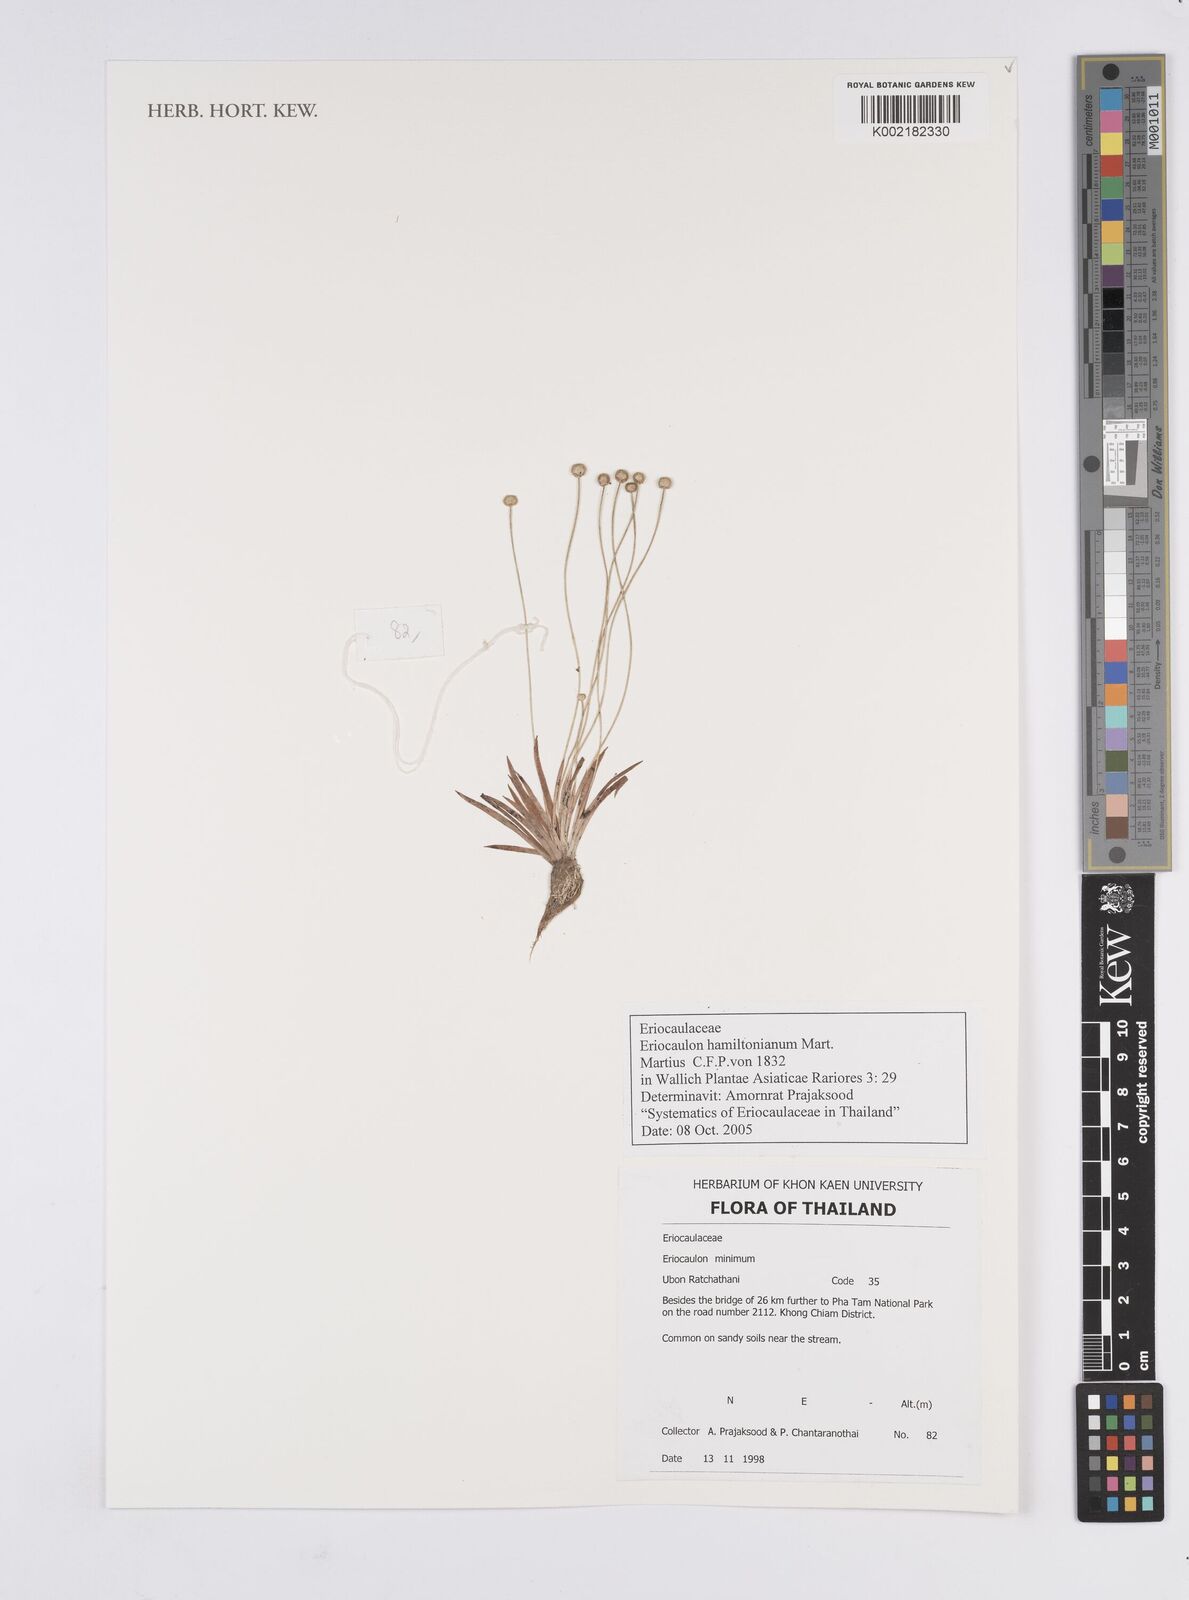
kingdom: Plantae
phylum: Tracheophyta
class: Liliopsida
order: Poales
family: Eriocaulaceae
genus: Eriocaulon
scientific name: Eriocaulon hamiltonianum
